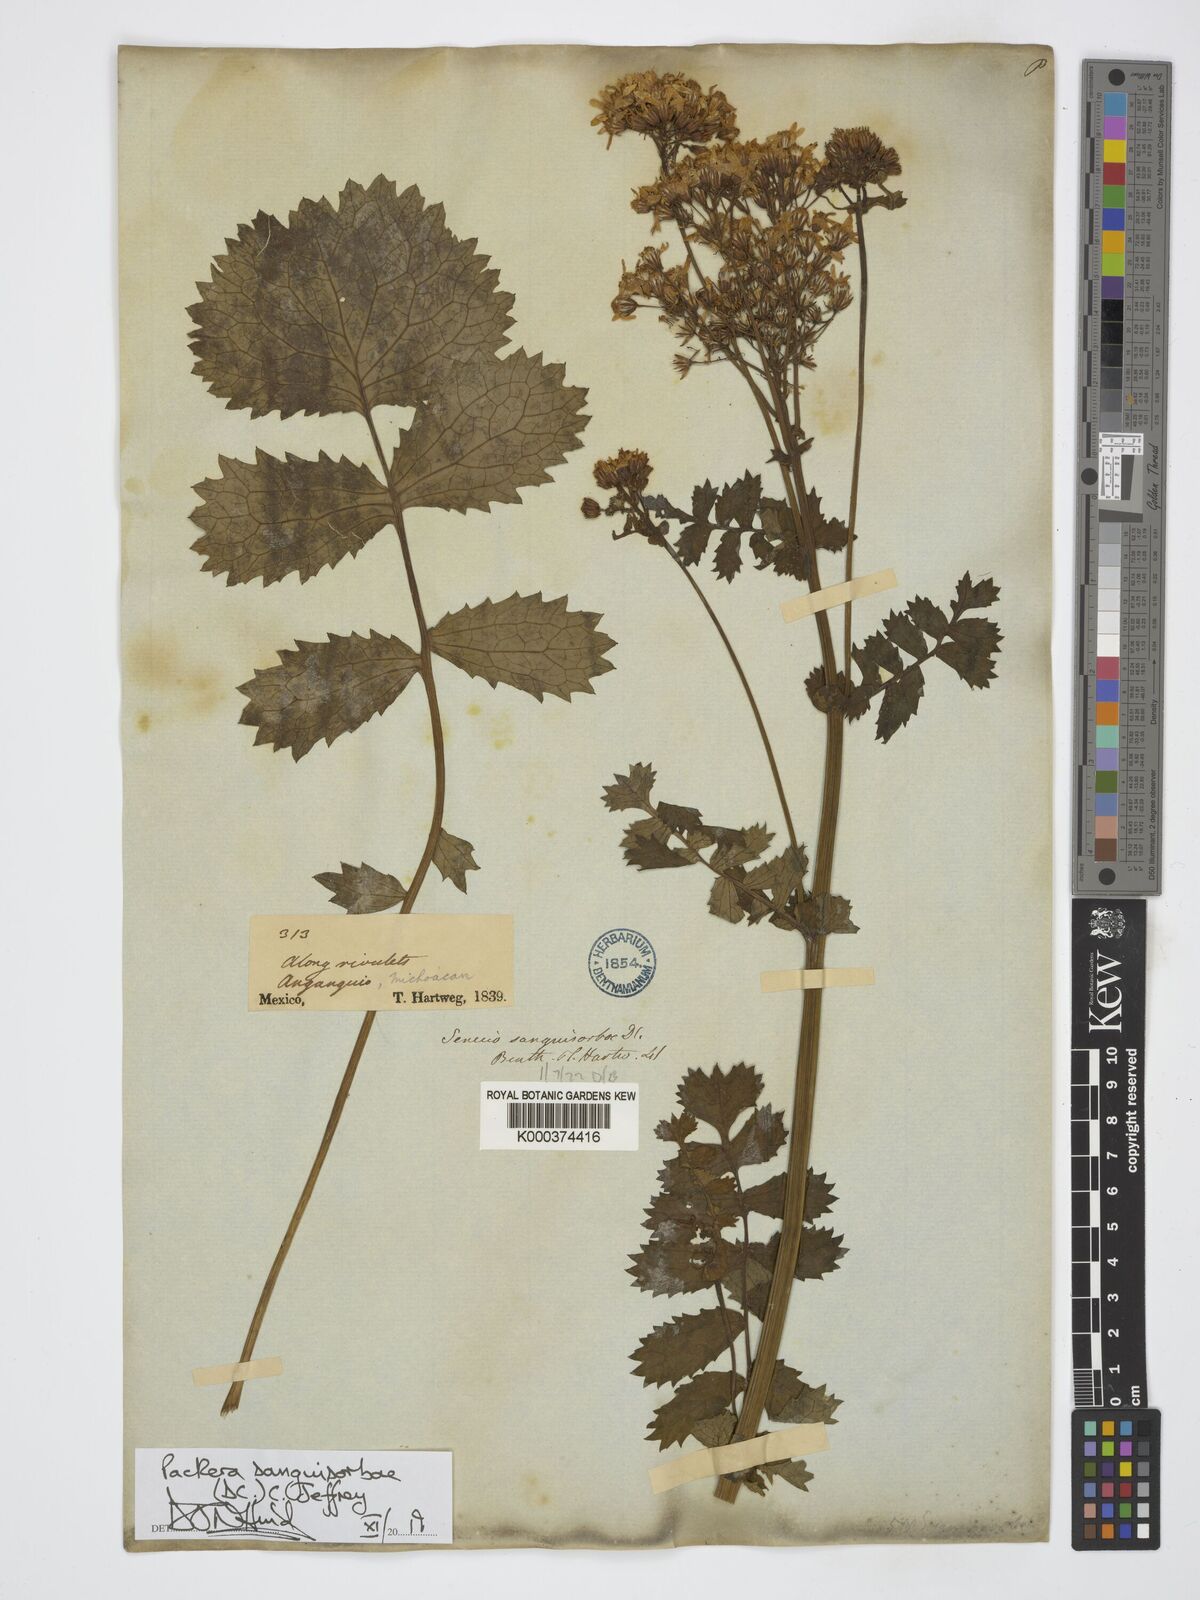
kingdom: Plantae
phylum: Tracheophyta
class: Magnoliopsida
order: Asterales
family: Asteraceae
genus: Packera
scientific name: Packera sanguisorbae
